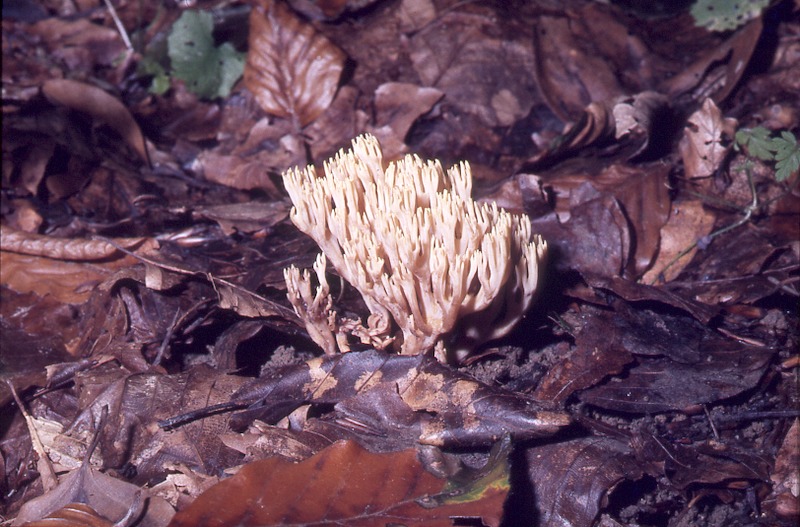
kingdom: Fungi
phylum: Basidiomycota
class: Agaricomycetes
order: Gomphales
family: Gomphaceae
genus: Ramaria
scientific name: Ramaria stricta
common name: Upright coral
